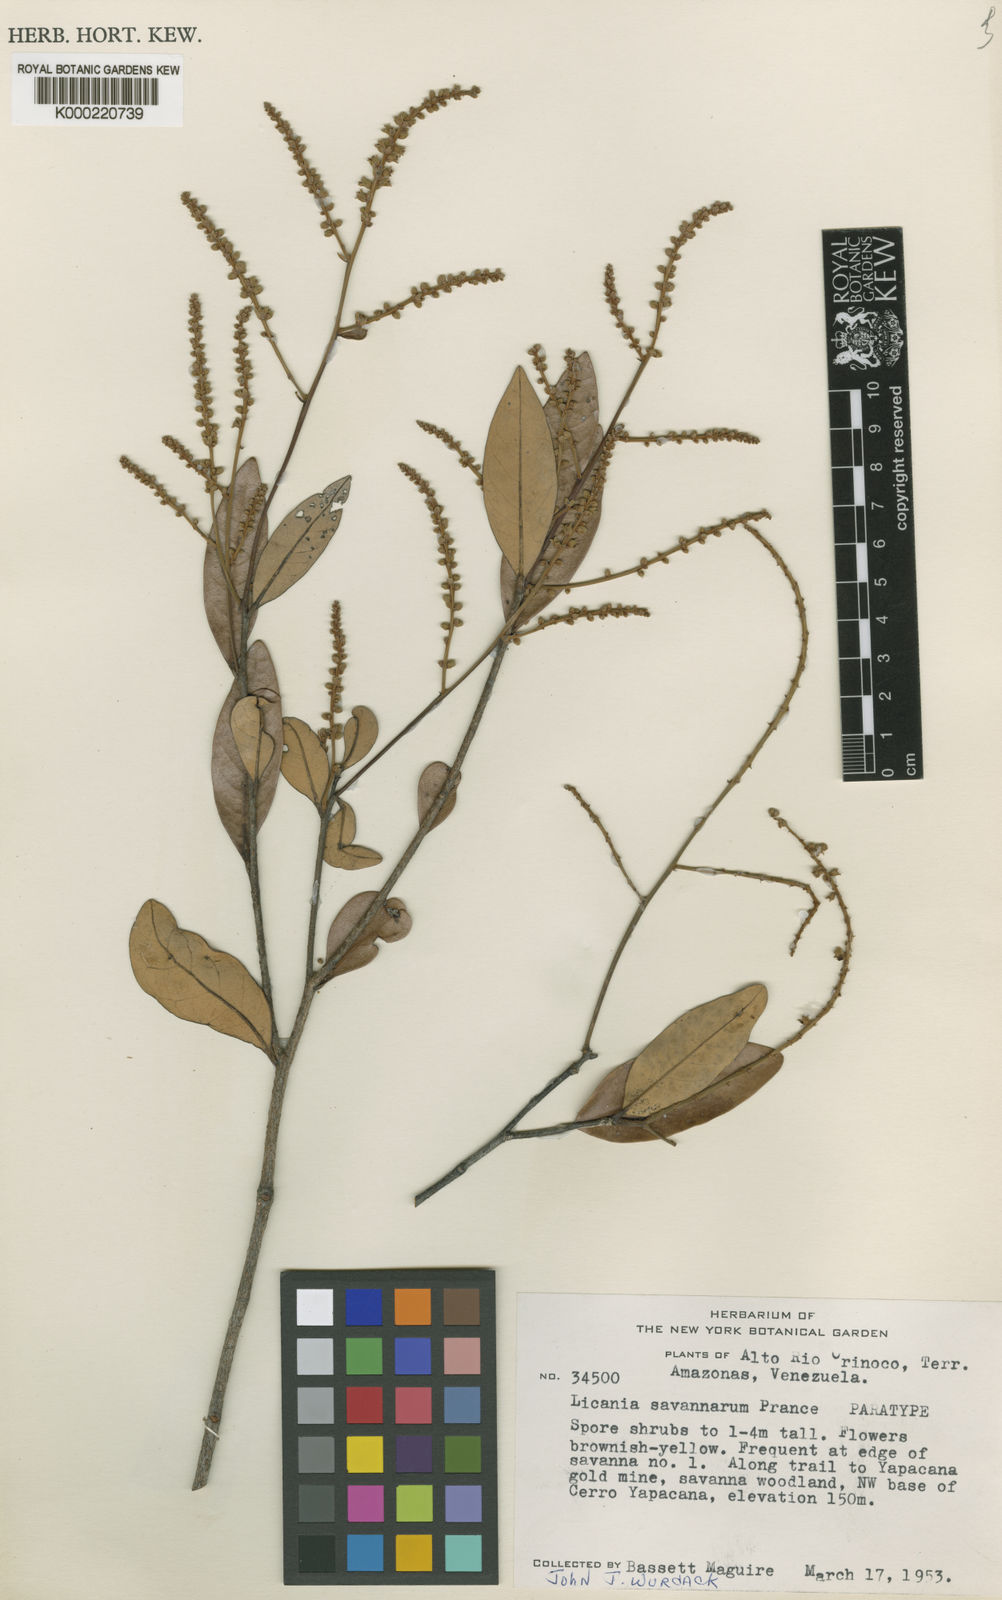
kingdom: Plantae
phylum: Tracheophyta
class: Magnoliopsida
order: Malpighiales
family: Chrysobalanaceae
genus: Licania
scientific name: Licania savannarum
